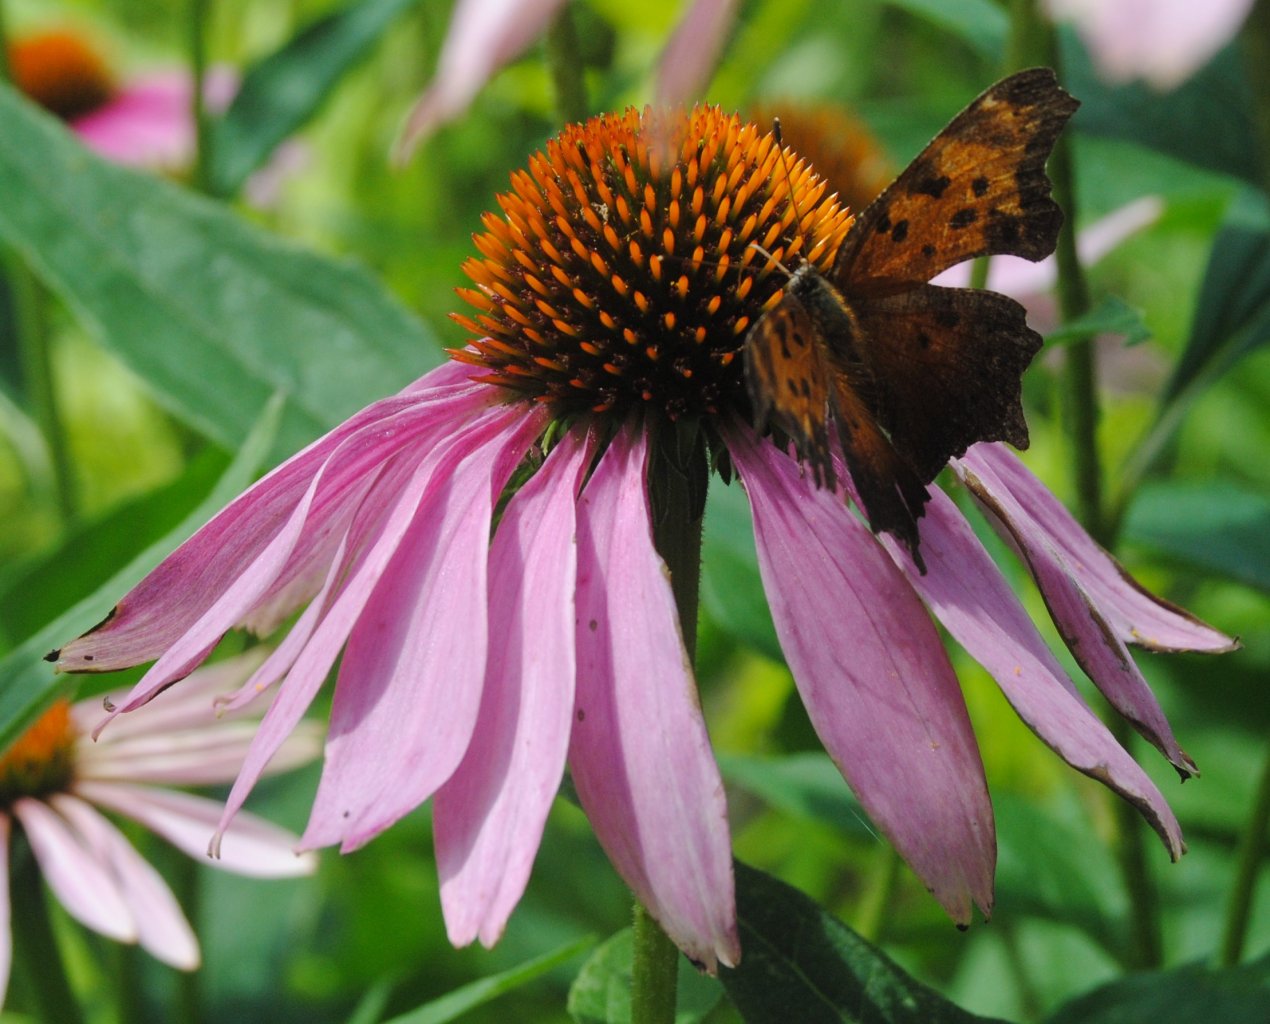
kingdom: Animalia
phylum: Arthropoda
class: Insecta
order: Lepidoptera
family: Nymphalidae
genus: Polygonia
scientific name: Polygonia progne
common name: Gray Comma
